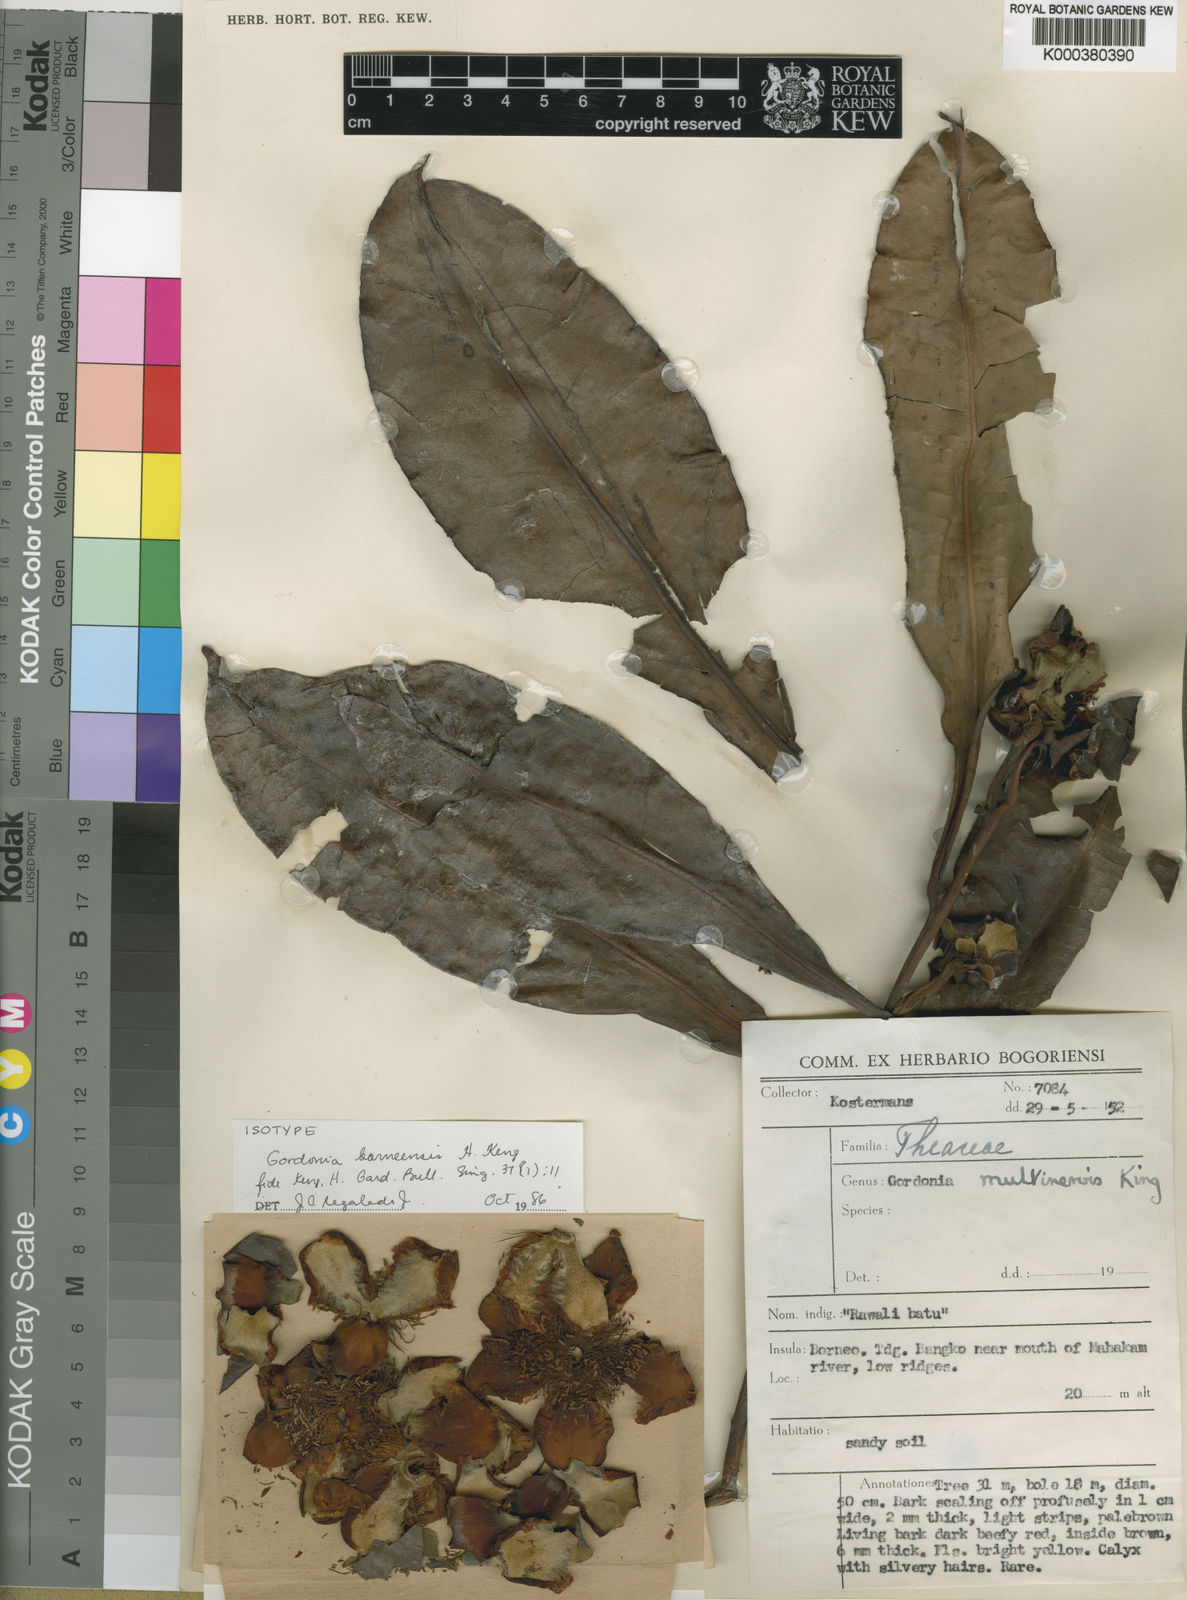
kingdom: Plantae
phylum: Tracheophyta
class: Magnoliopsida
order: Ericales
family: Theaceae
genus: Polyspora
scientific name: Polyspora borneensis
